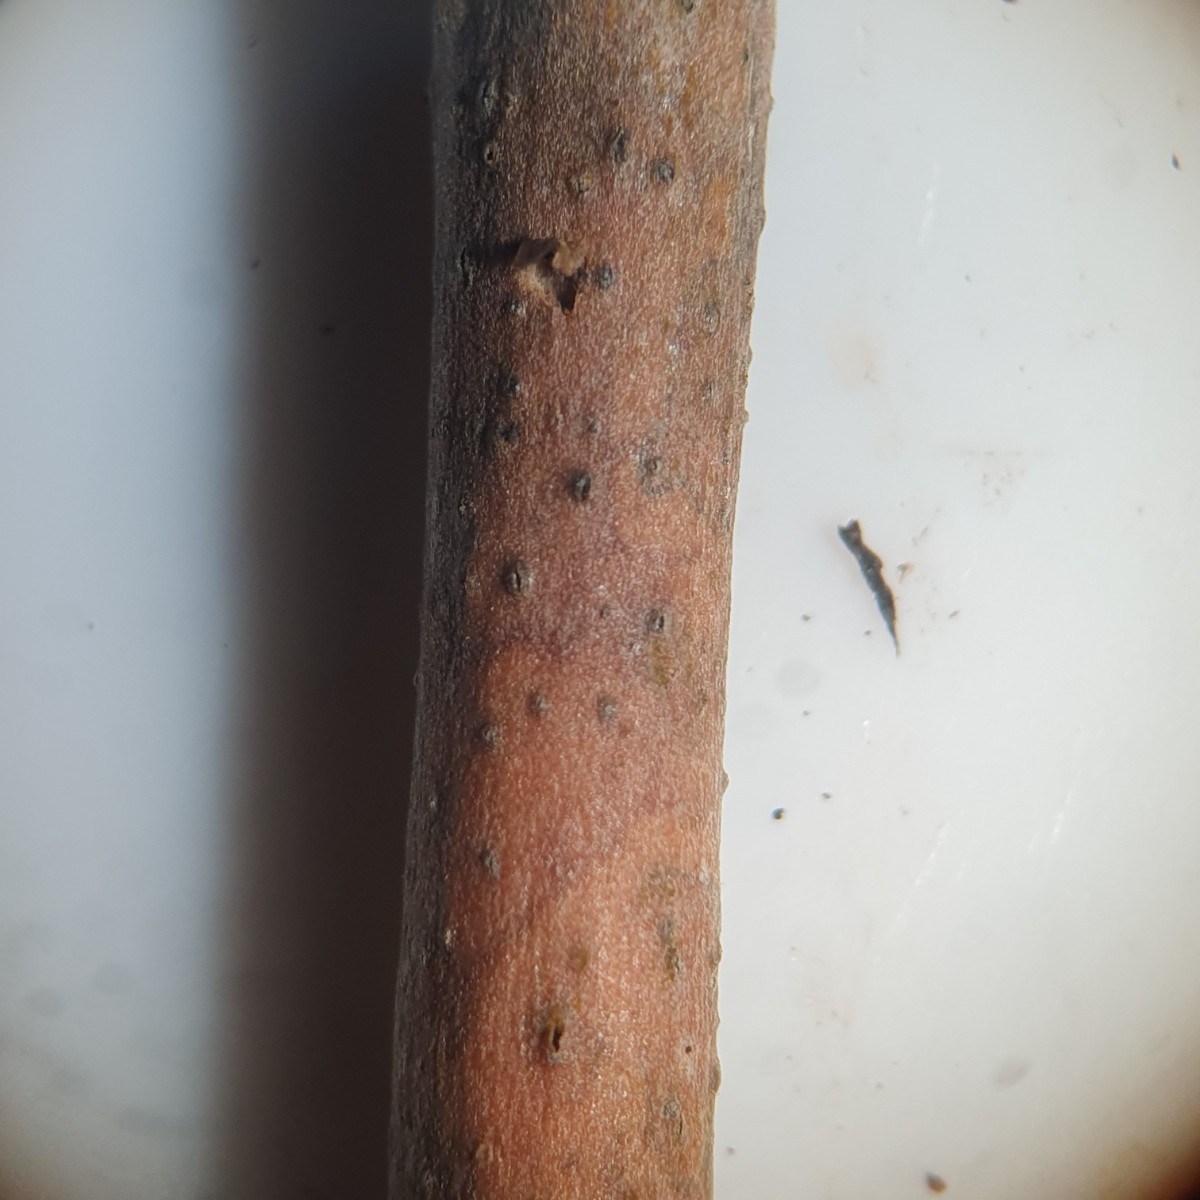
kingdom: Fungi
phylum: Ascomycota
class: Sordariomycetes
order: Diaporthales
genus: Botryodiplodia
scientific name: Botryodiplodia fraxini
